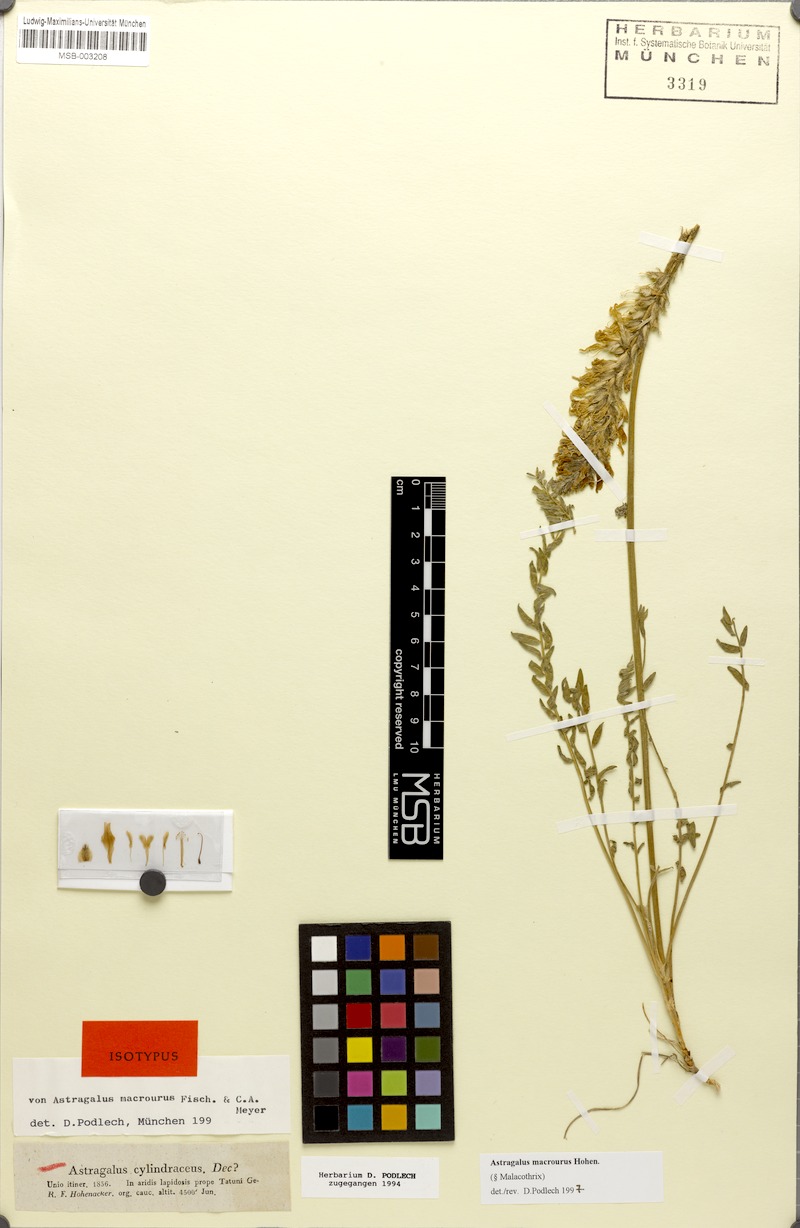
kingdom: Plantae
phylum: Tracheophyta
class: Magnoliopsida
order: Fabales
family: Fabaceae
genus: Astragalus
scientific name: Astragalus macrourus
